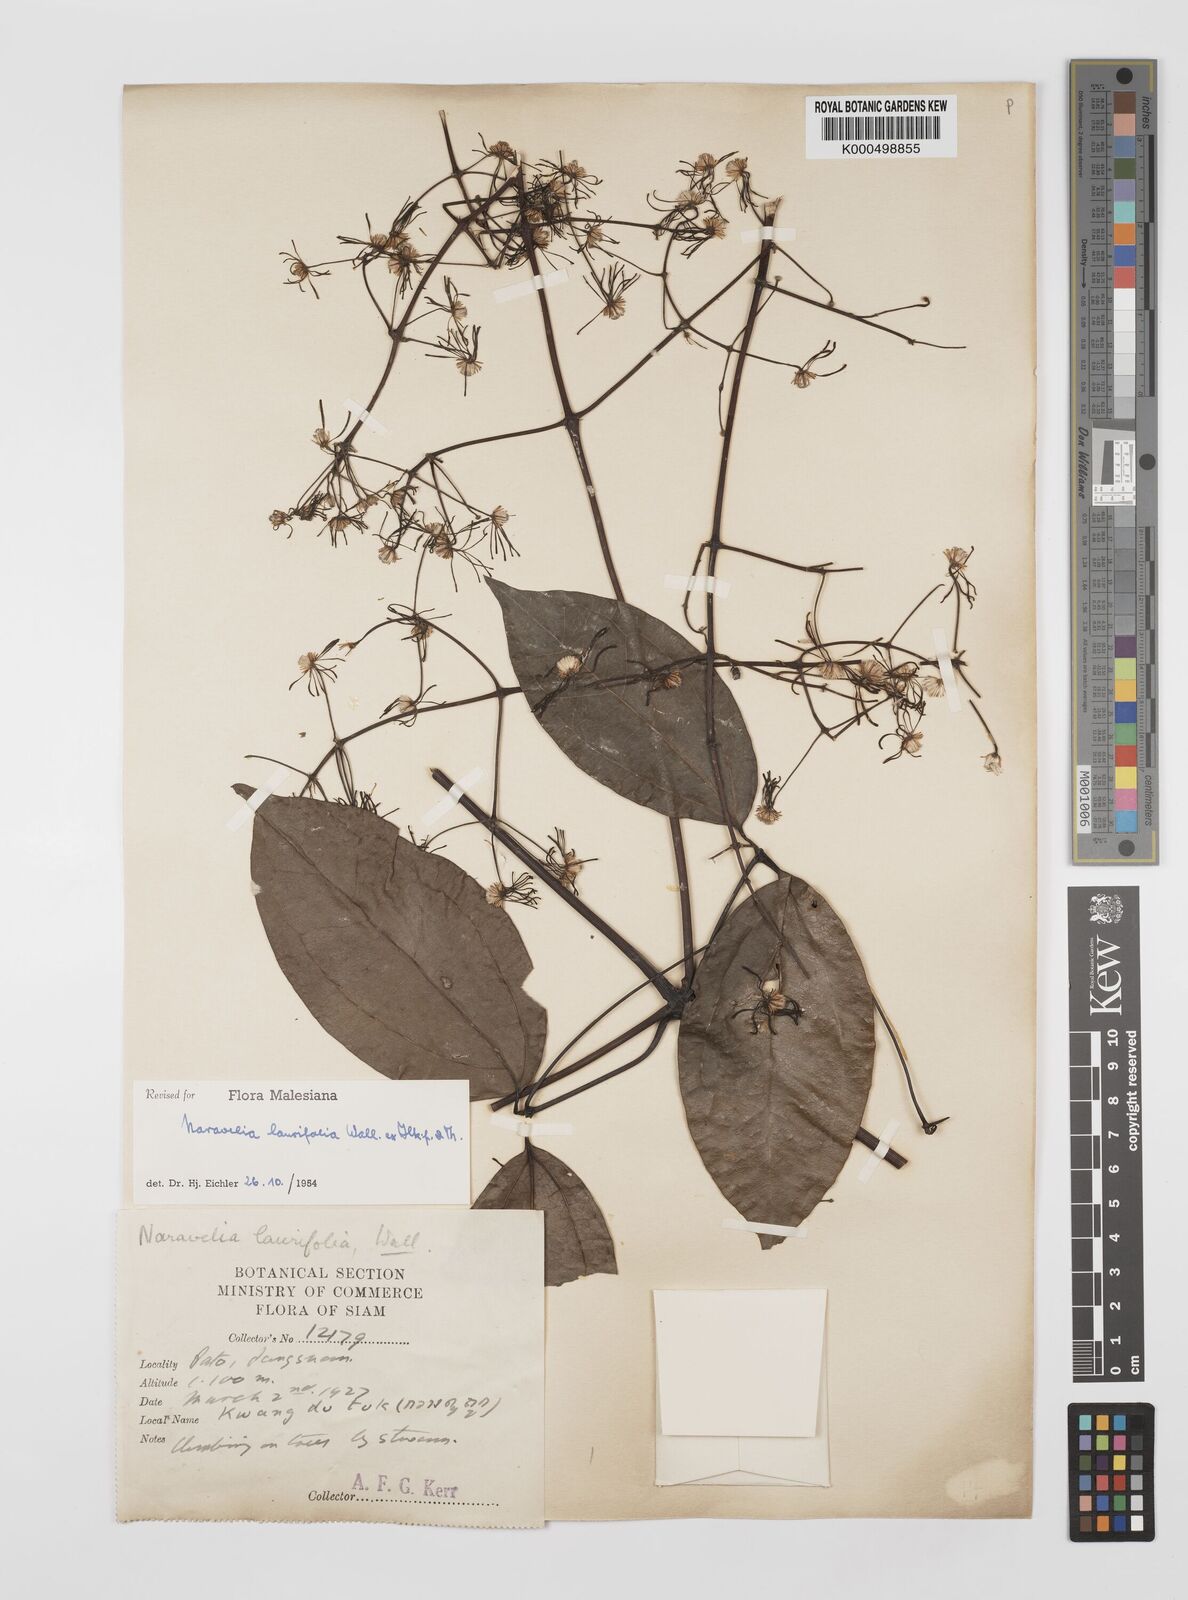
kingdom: Plantae
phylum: Tracheophyta
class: Magnoliopsida
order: Ranunculales
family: Ranunculaceae
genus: Clematis
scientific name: Clematis horripilata
